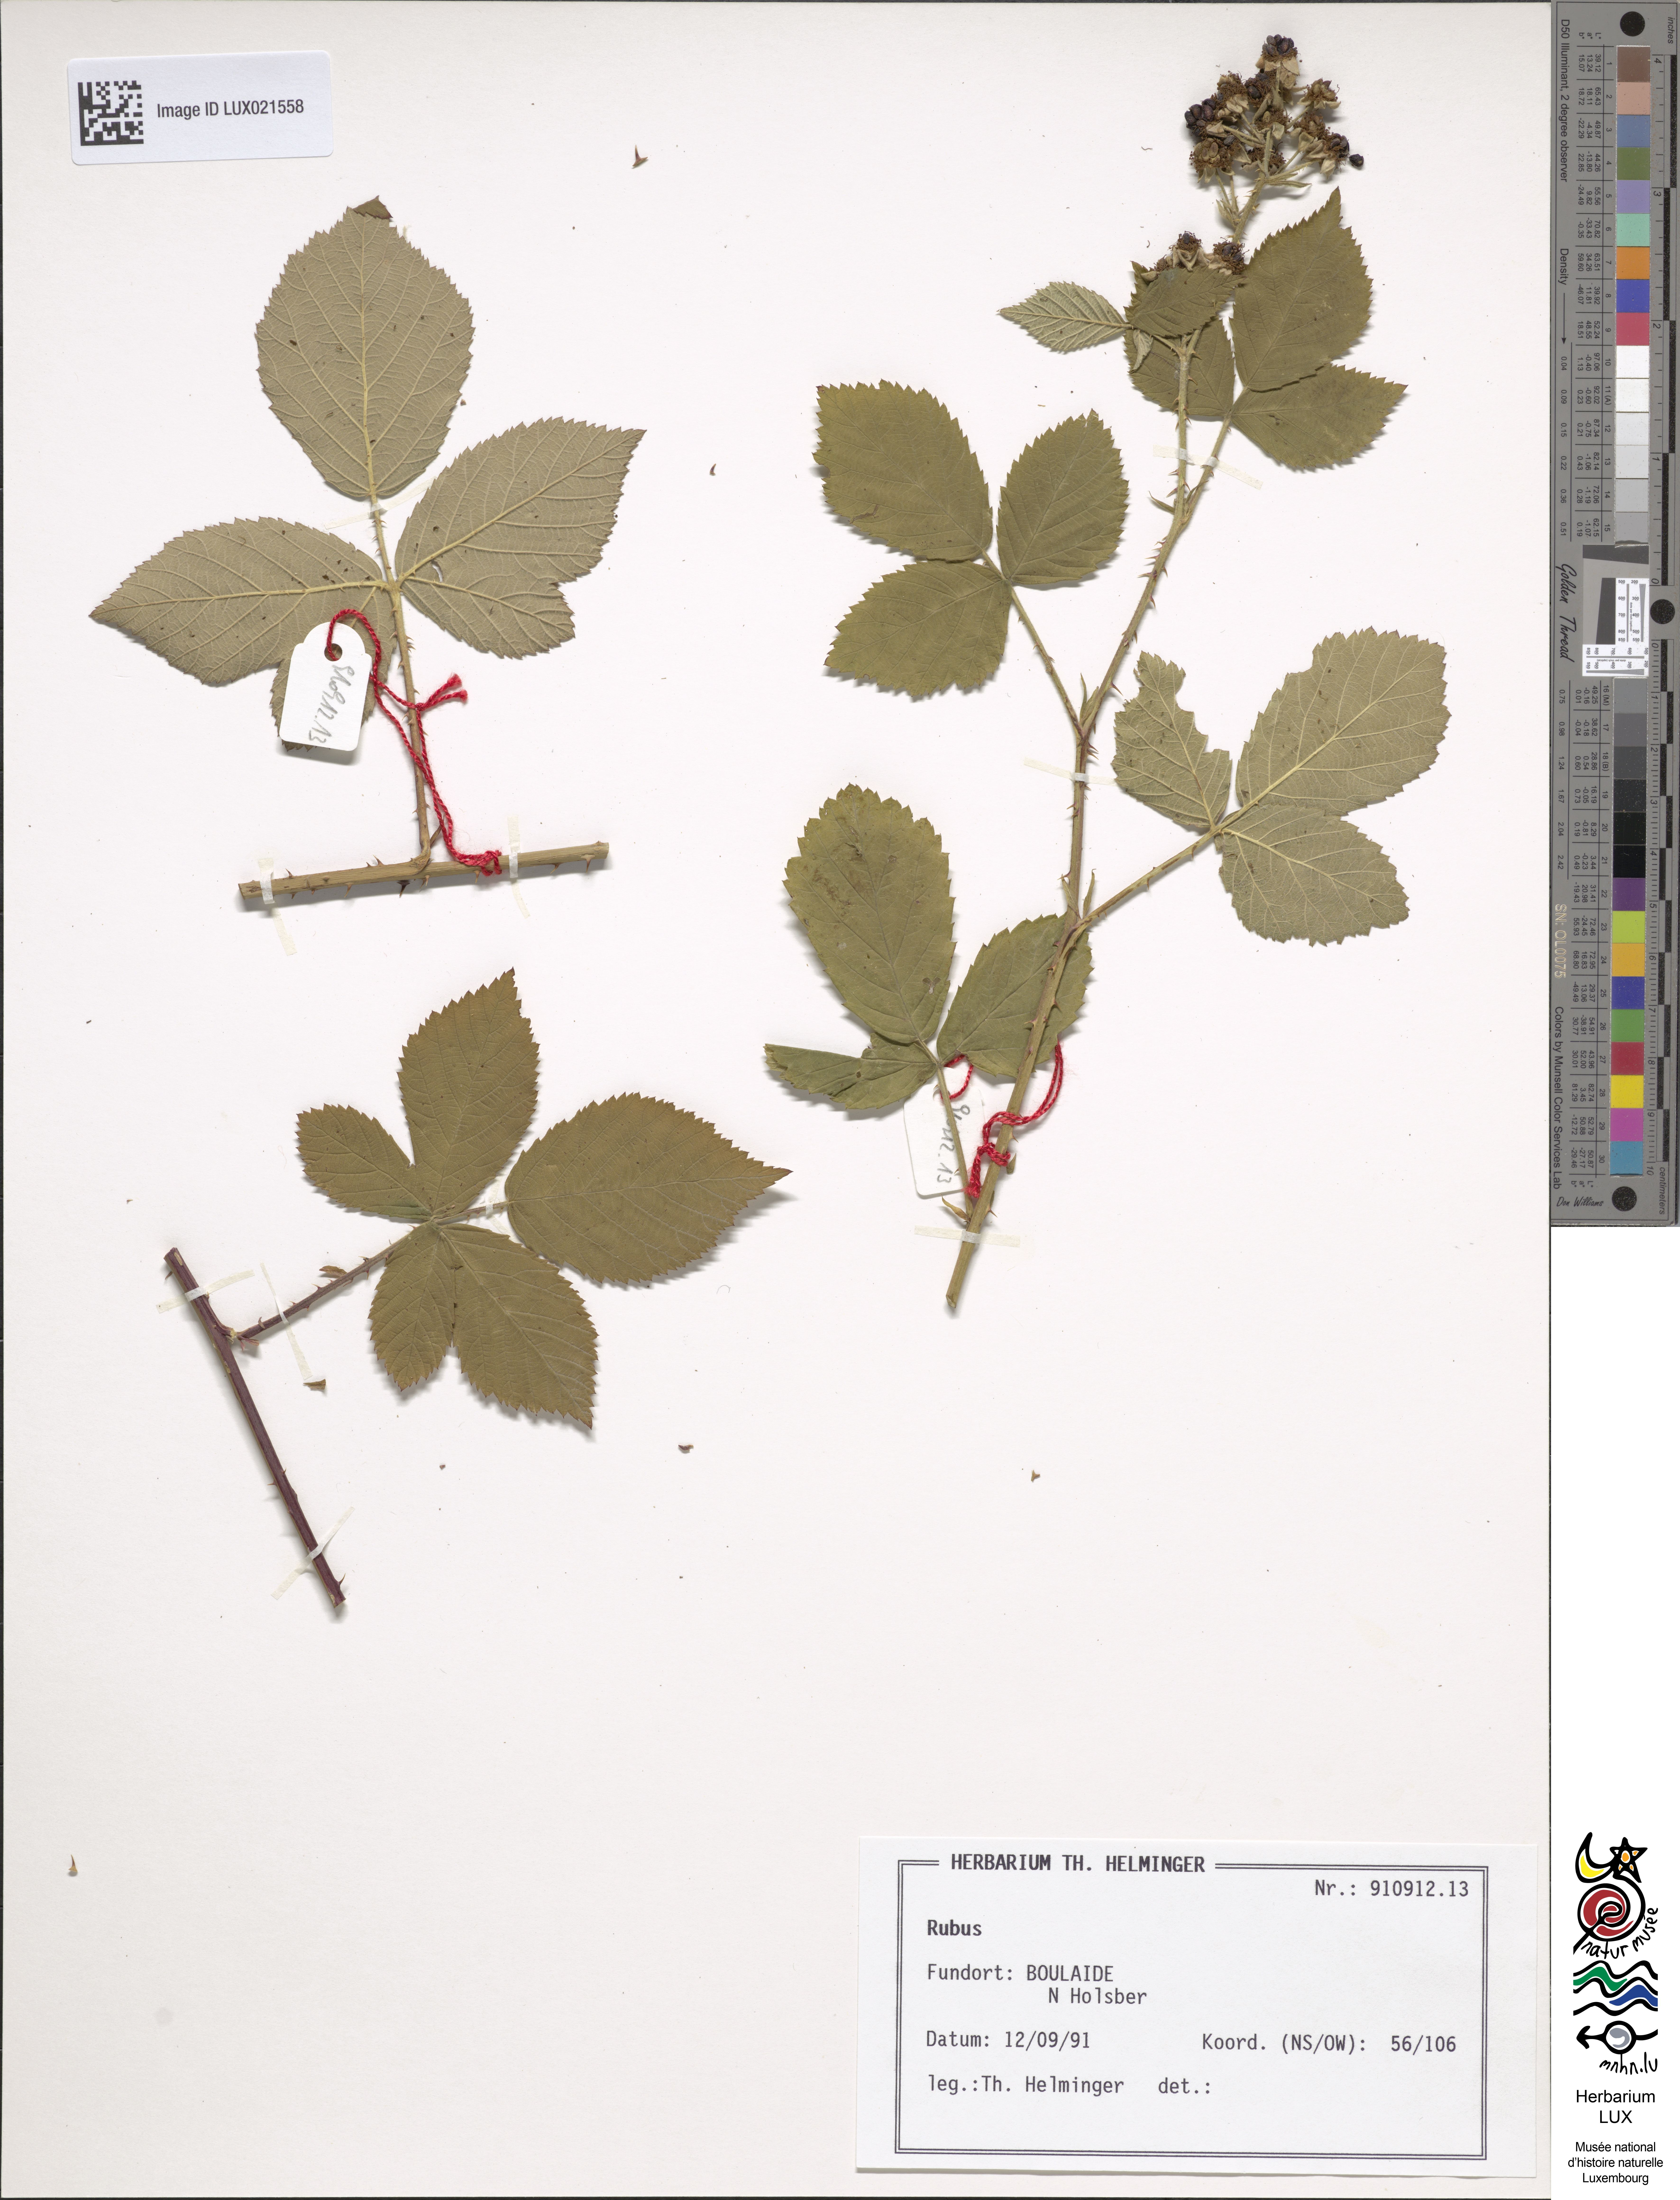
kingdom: Plantae
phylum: Tracheophyta
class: Magnoliopsida
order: Rosales
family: Rosaceae
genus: Rubus
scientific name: Rubus
